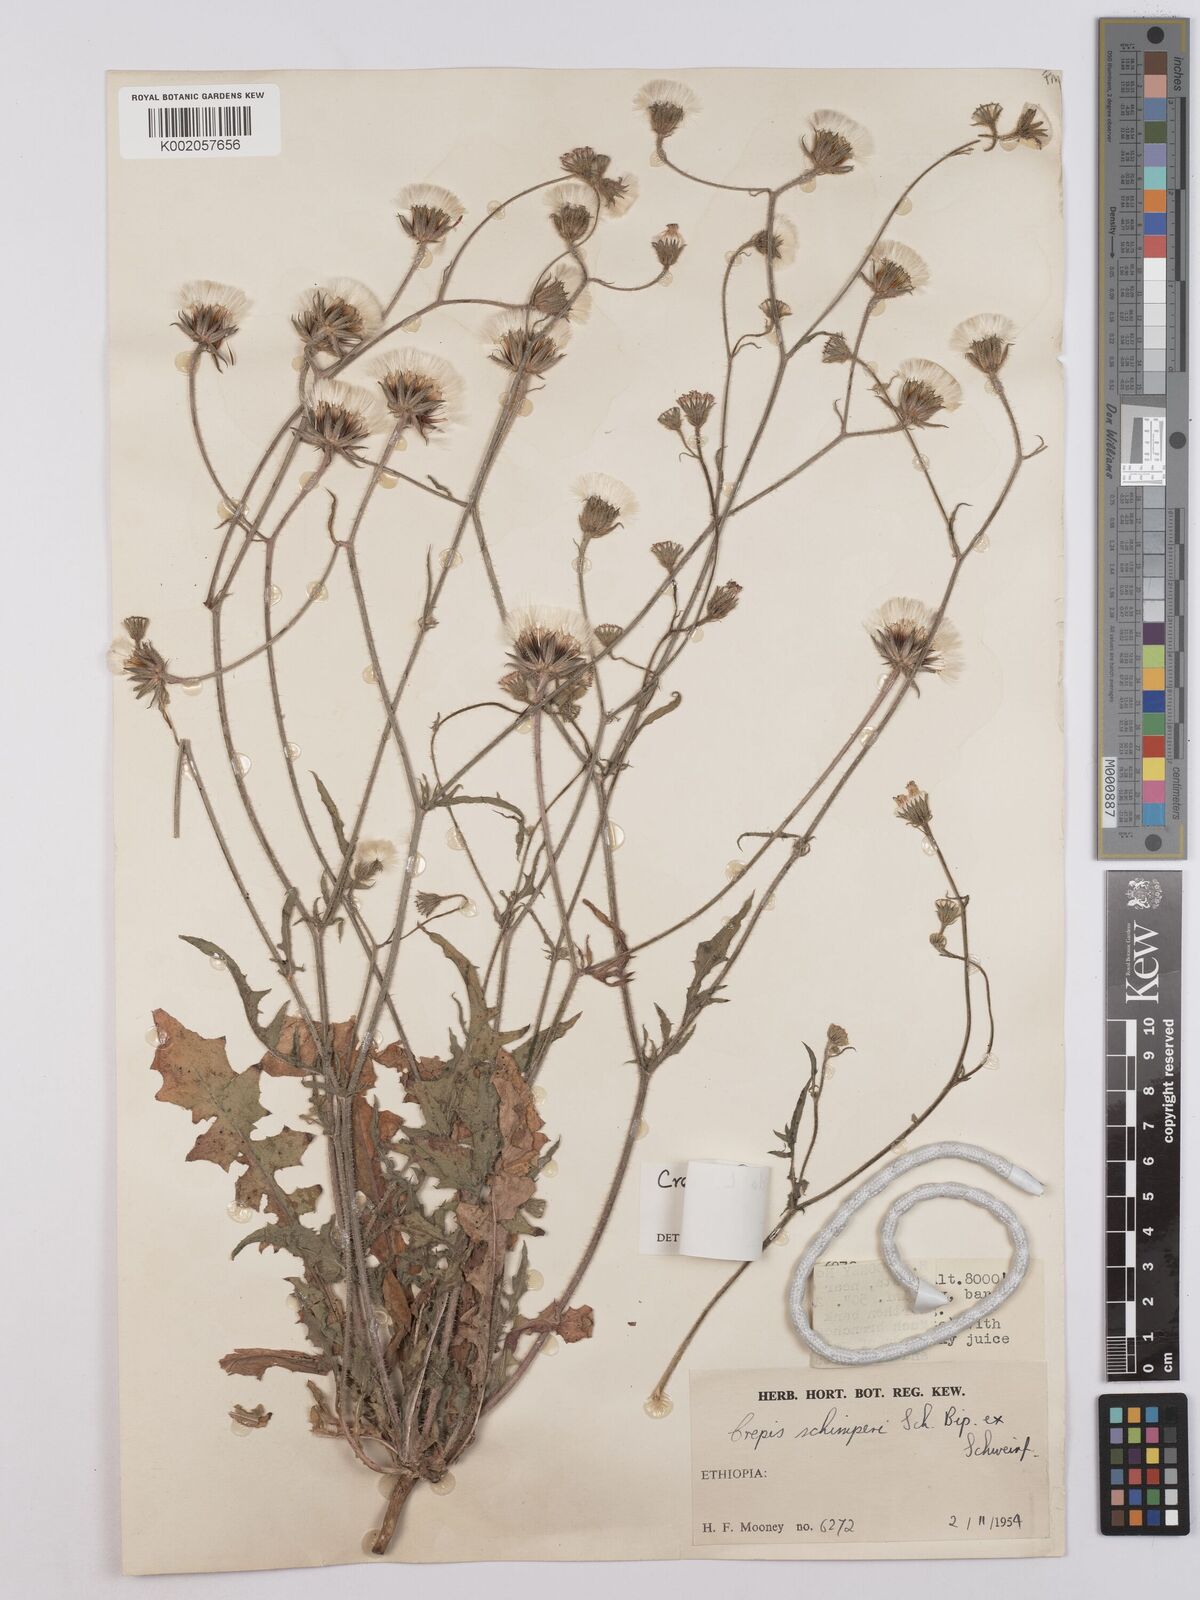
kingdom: Plantae
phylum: Tracheophyta
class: Magnoliopsida
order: Asterales
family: Asteraceae
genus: Crepis
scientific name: Crepis foetida
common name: Stinking hawk's-beard
